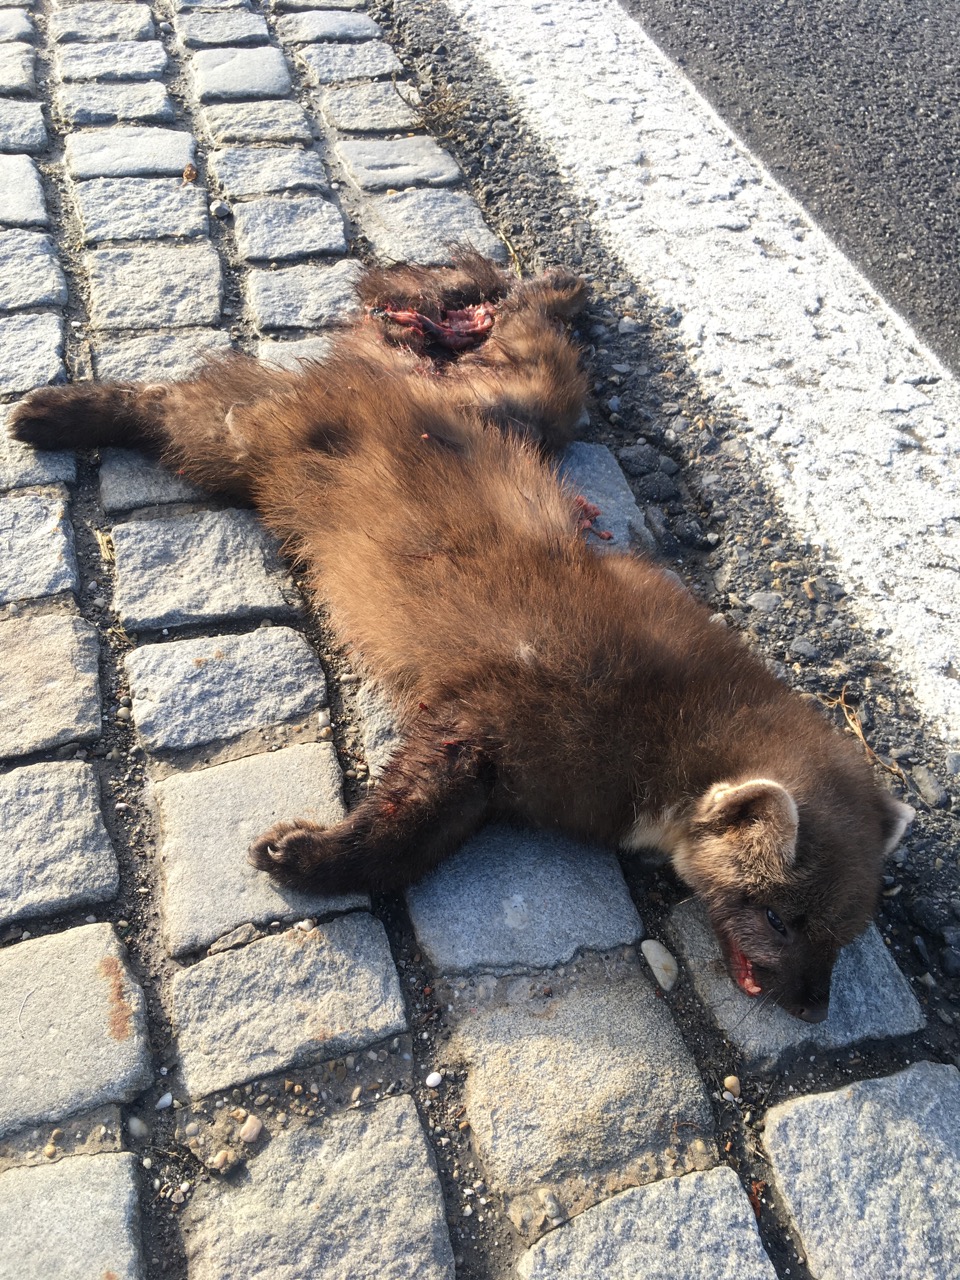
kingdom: Animalia
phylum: Chordata
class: Mammalia
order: Carnivora
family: Mustelidae
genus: Martes
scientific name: Martes martes
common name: European pine marten
